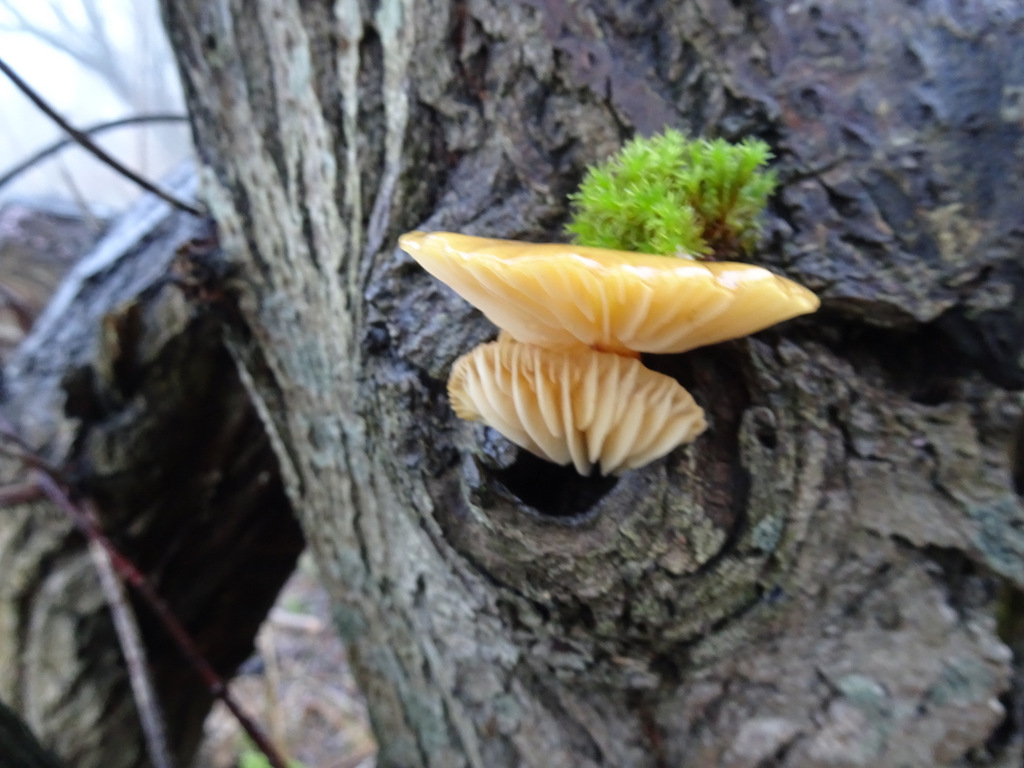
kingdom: Fungi
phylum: Basidiomycota
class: Agaricomycetes
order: Agaricales
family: Physalacriaceae
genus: Flammulina
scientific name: Flammulina
